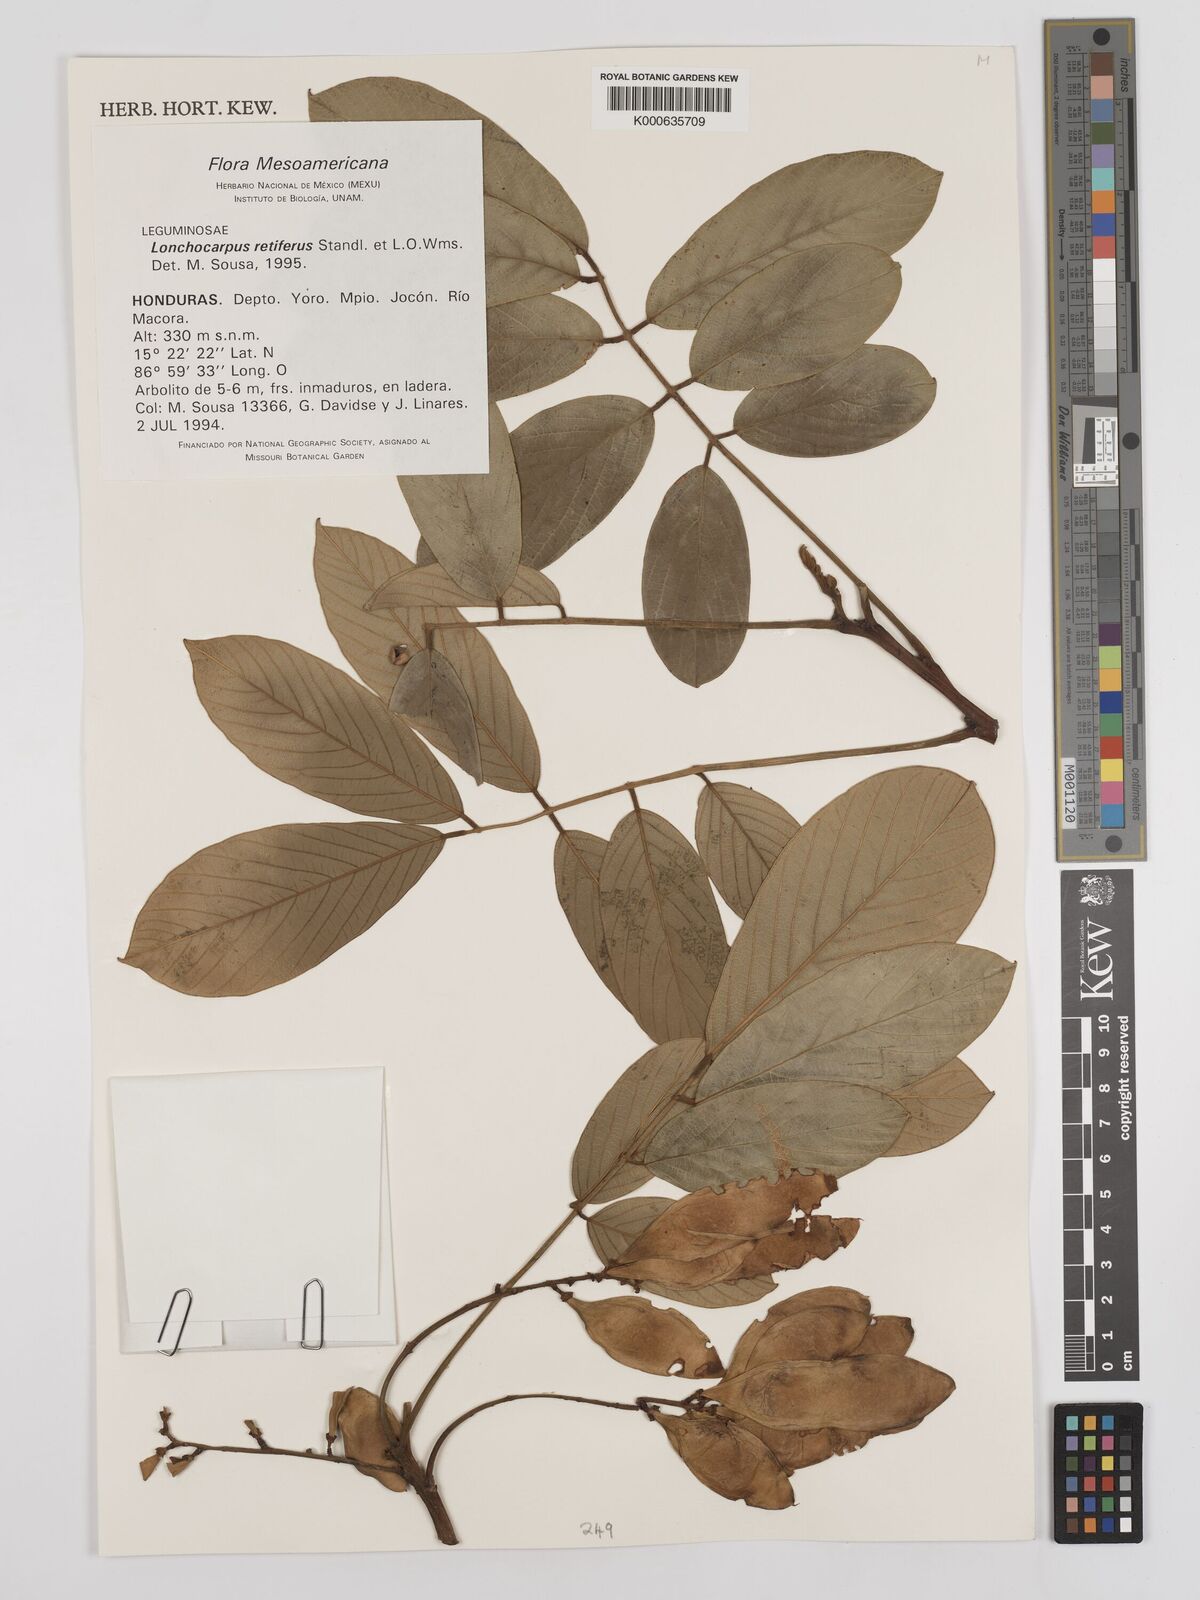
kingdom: Plantae
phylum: Tracheophyta
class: Magnoliopsida
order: Fabales
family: Fabaceae
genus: Lonchocarpus
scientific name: Lonchocarpus
